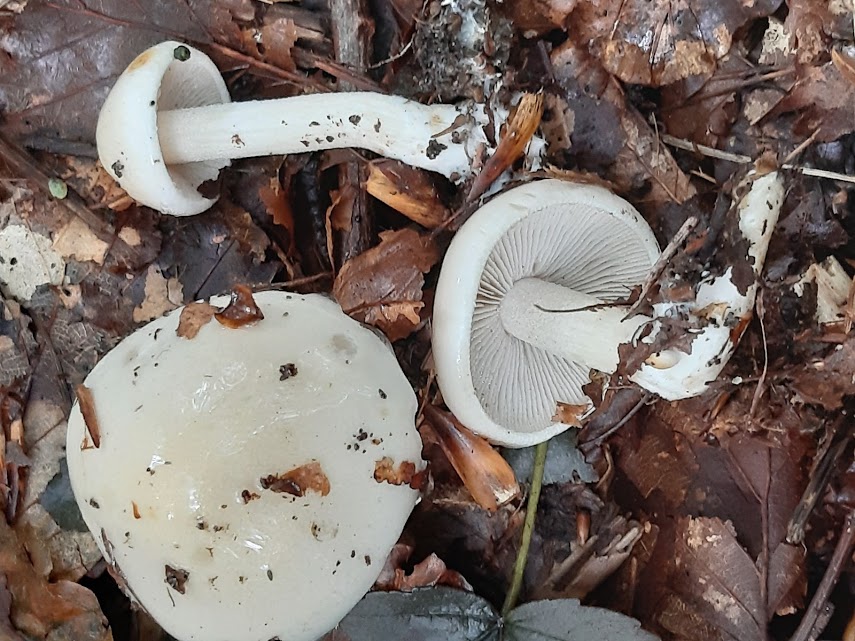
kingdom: Fungi
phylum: Basidiomycota
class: Agaricomycetes
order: Agaricales
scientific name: Agaricales
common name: champignonordenen
